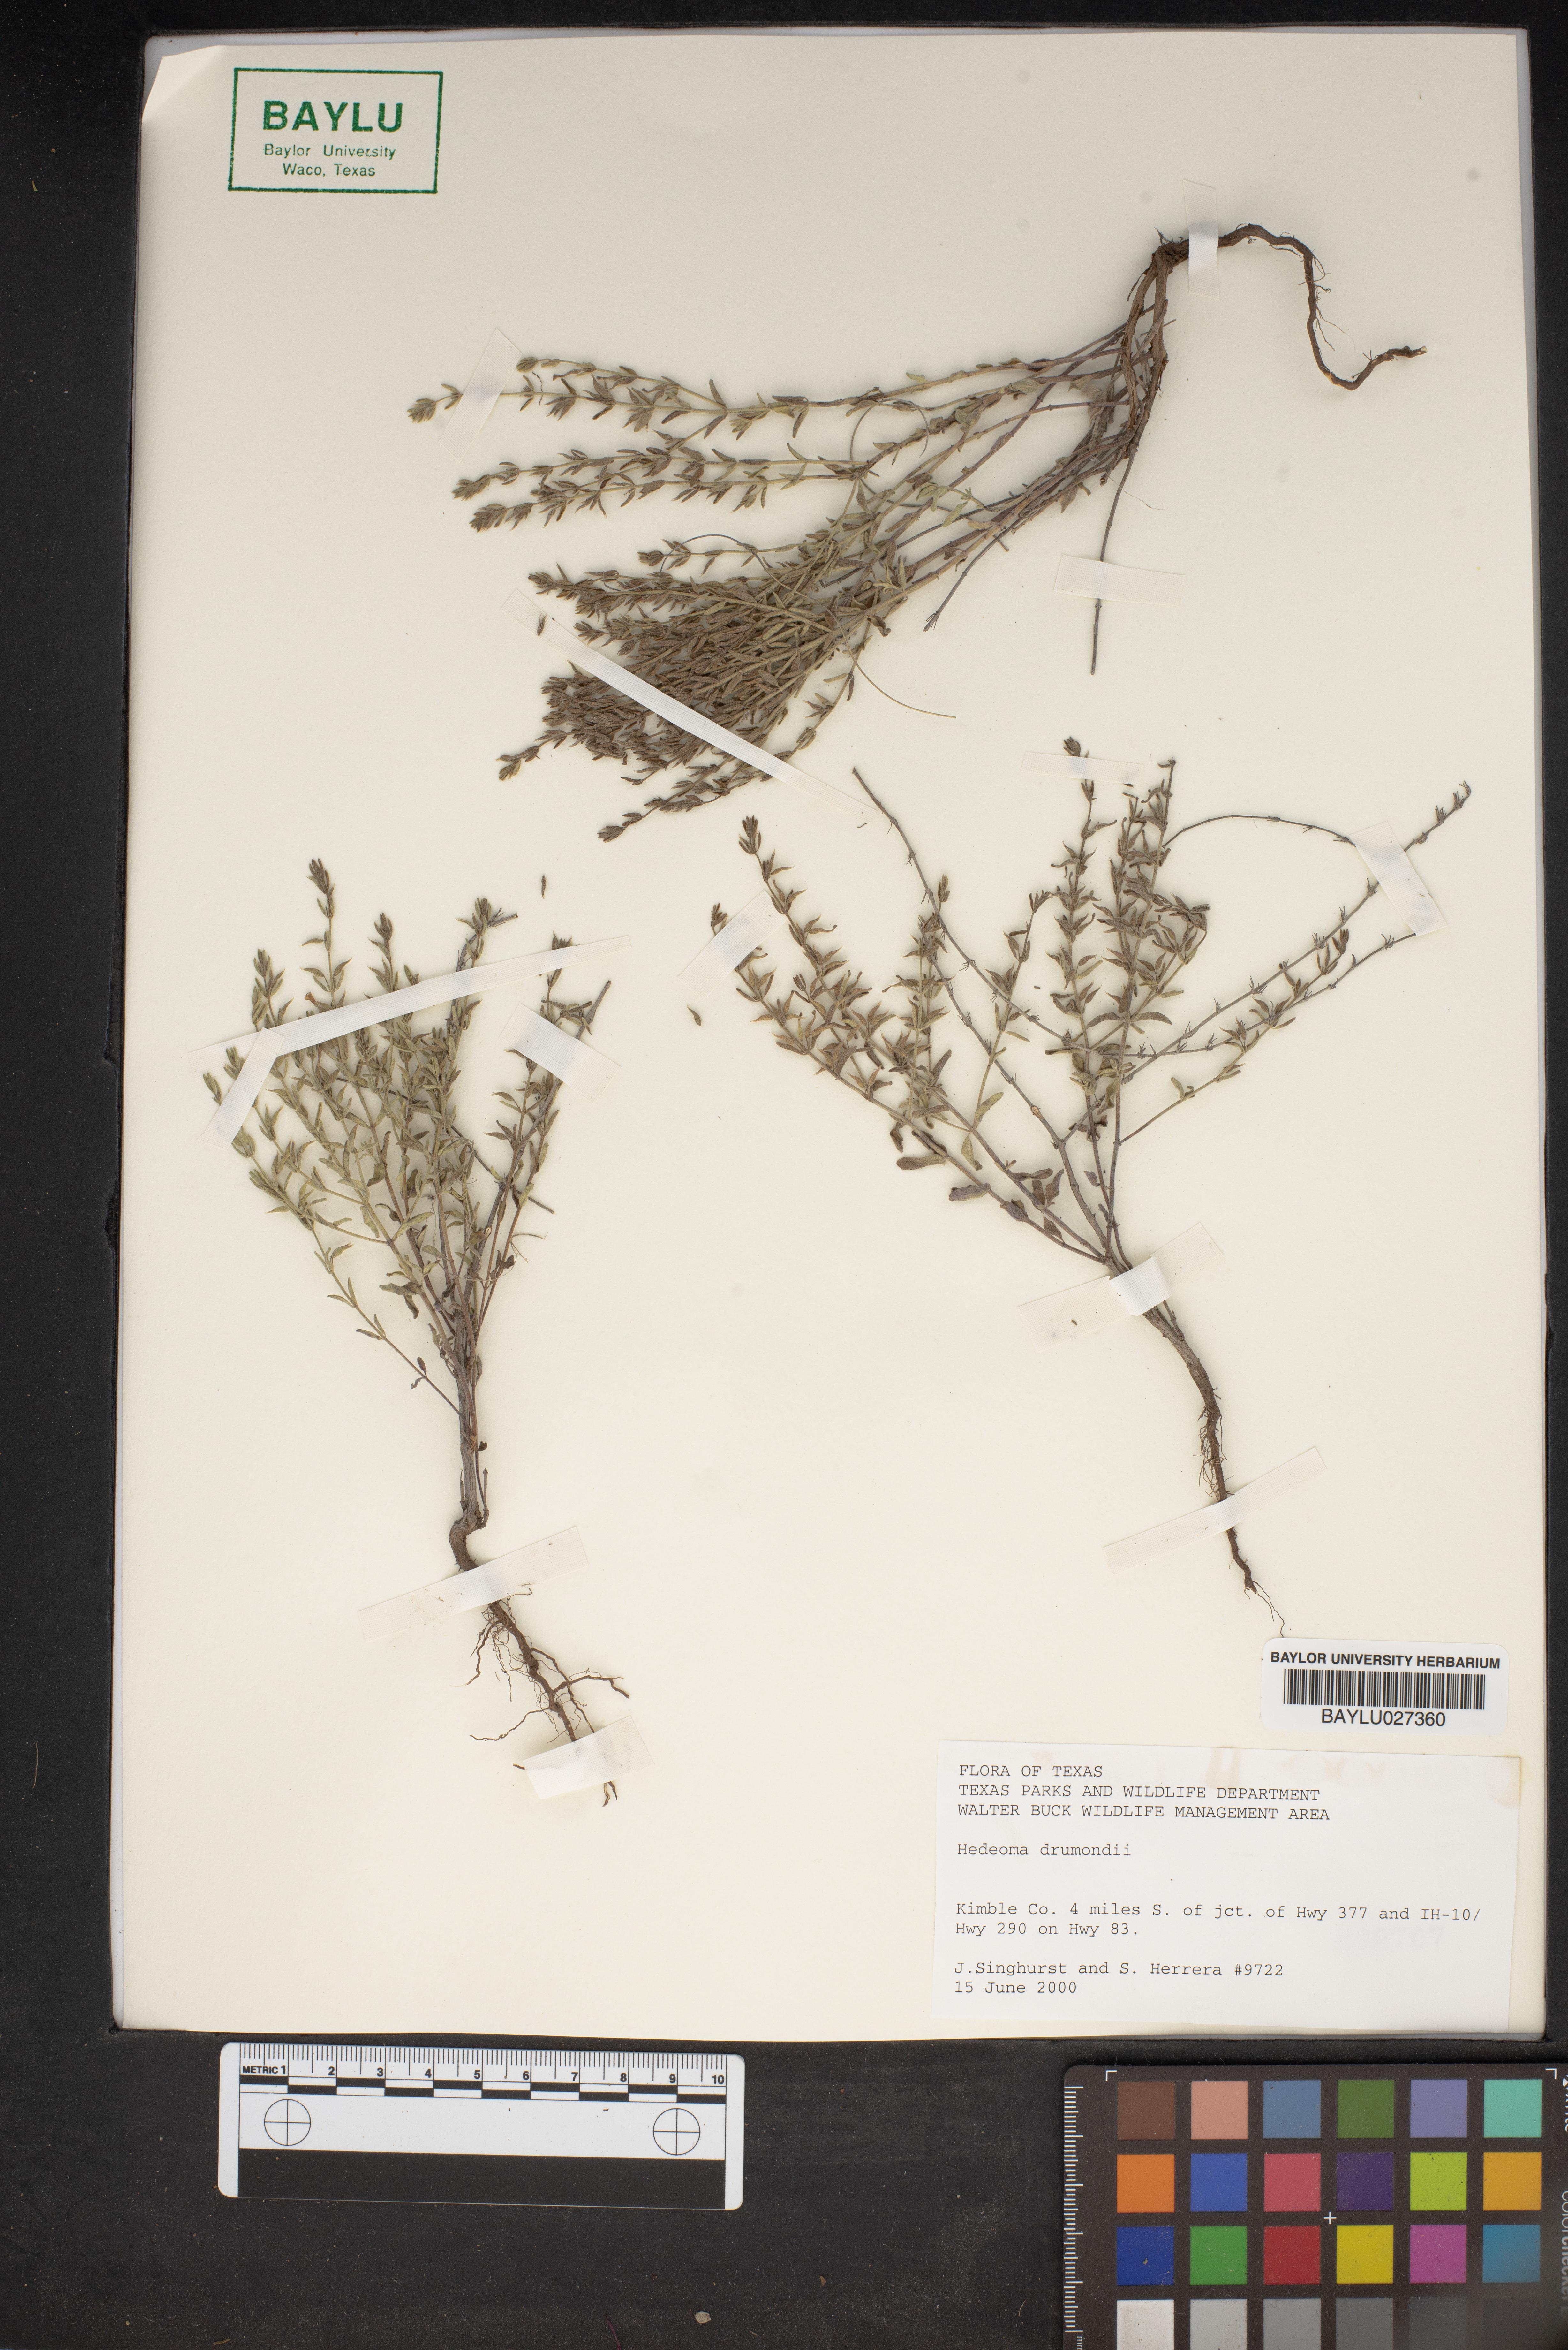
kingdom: Plantae
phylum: Tracheophyta
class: Magnoliopsida
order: Lamiales
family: Lamiaceae
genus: Hedeoma
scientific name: Hedeoma drummondii
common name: New mexico pennyroyal
